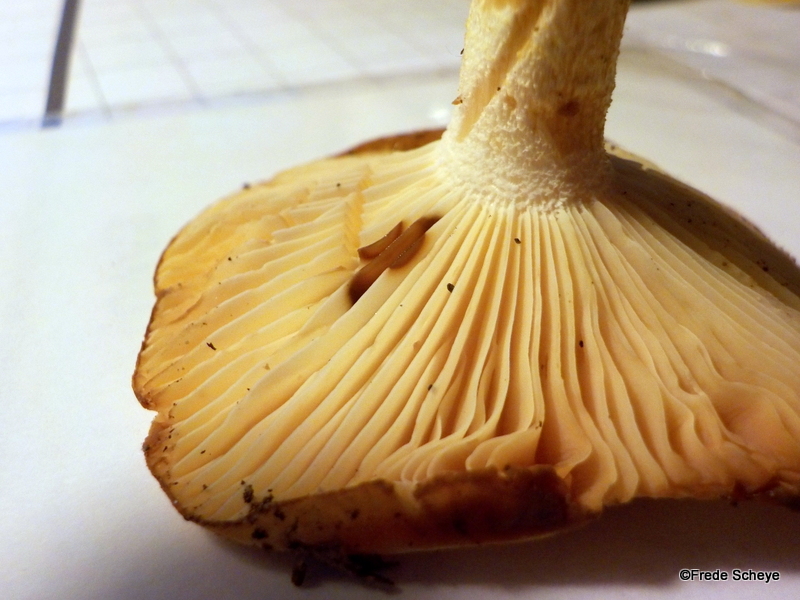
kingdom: Fungi
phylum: Basidiomycota
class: Agaricomycetes
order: Agaricales
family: Hygrophoraceae
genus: Hygrophorus
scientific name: Hygrophorus discoxanthus
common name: ildelugtende sneglehat
